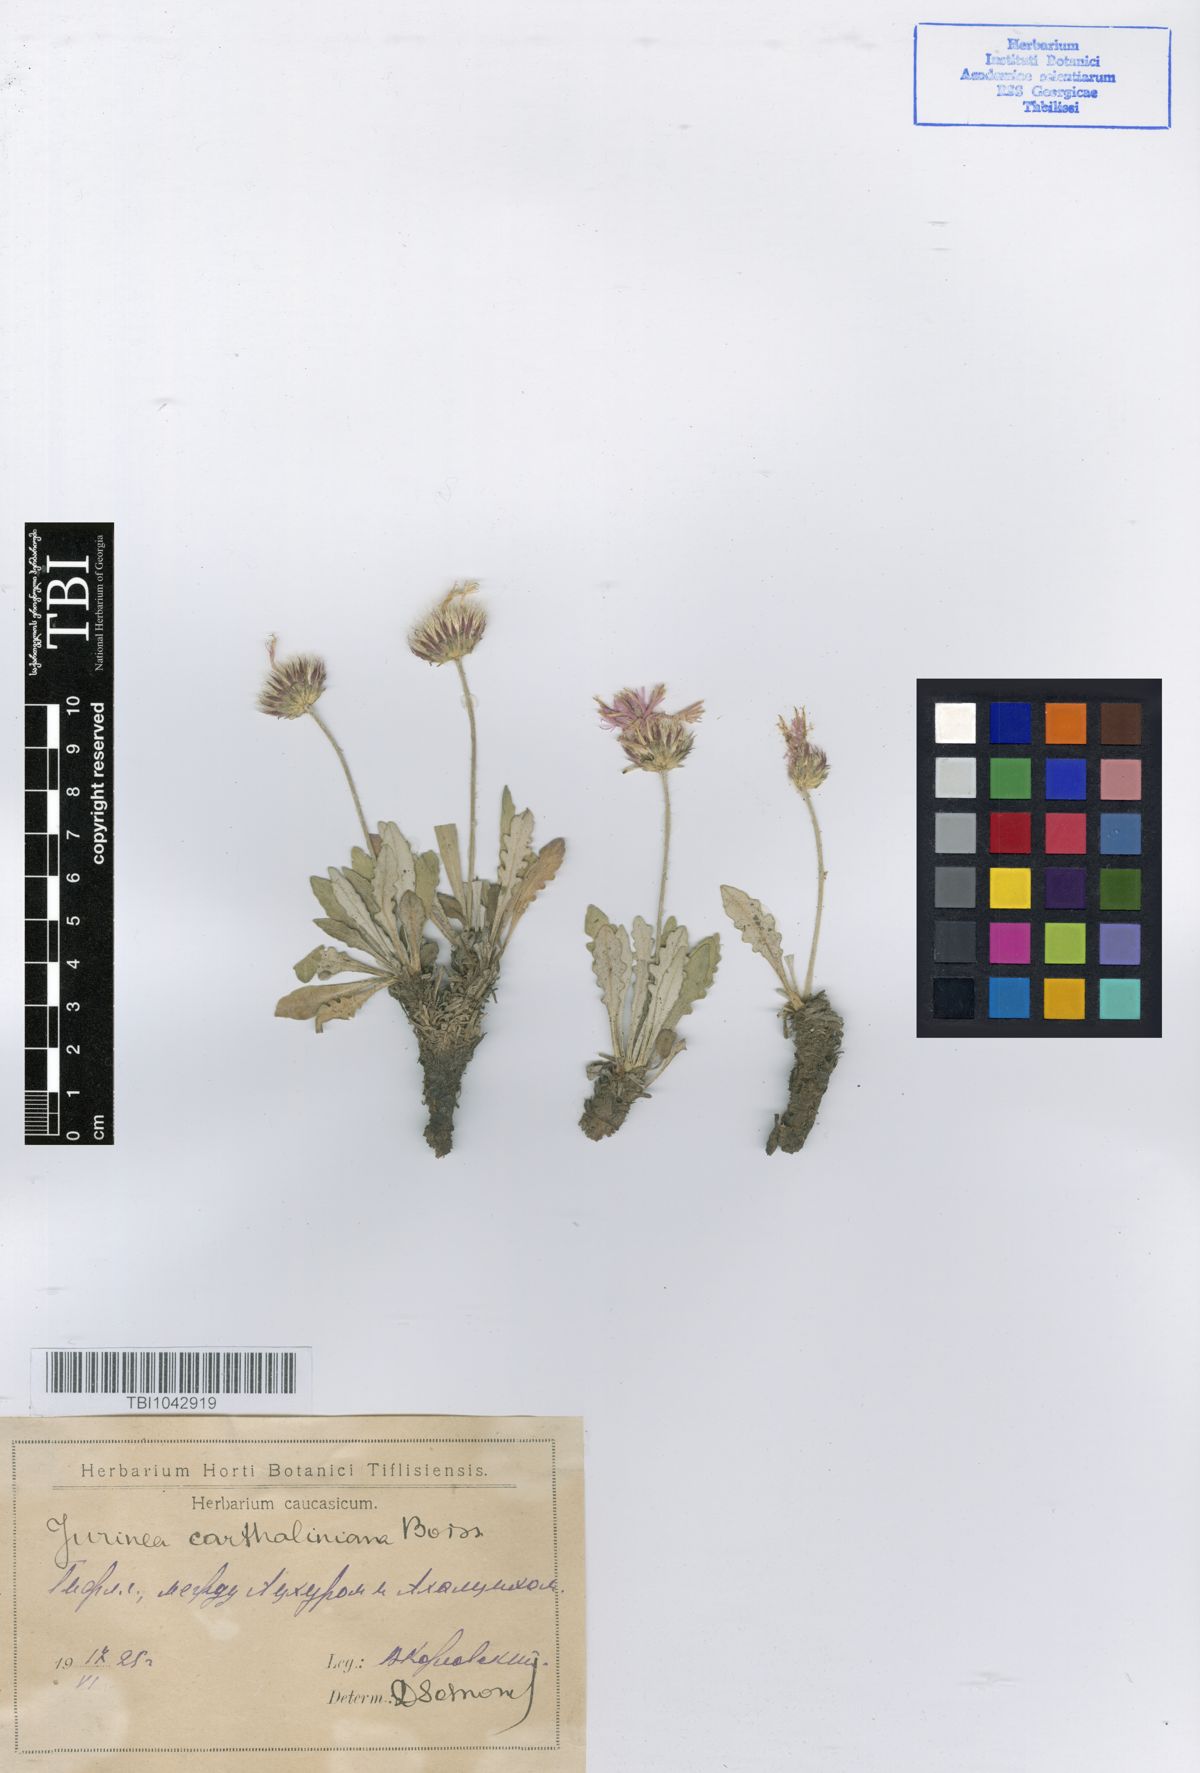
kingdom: Plantae
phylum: Tracheophyta
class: Magnoliopsida
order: Asterales
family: Asteraceae
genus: Jurinea
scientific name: Jurinea cartaliniana
